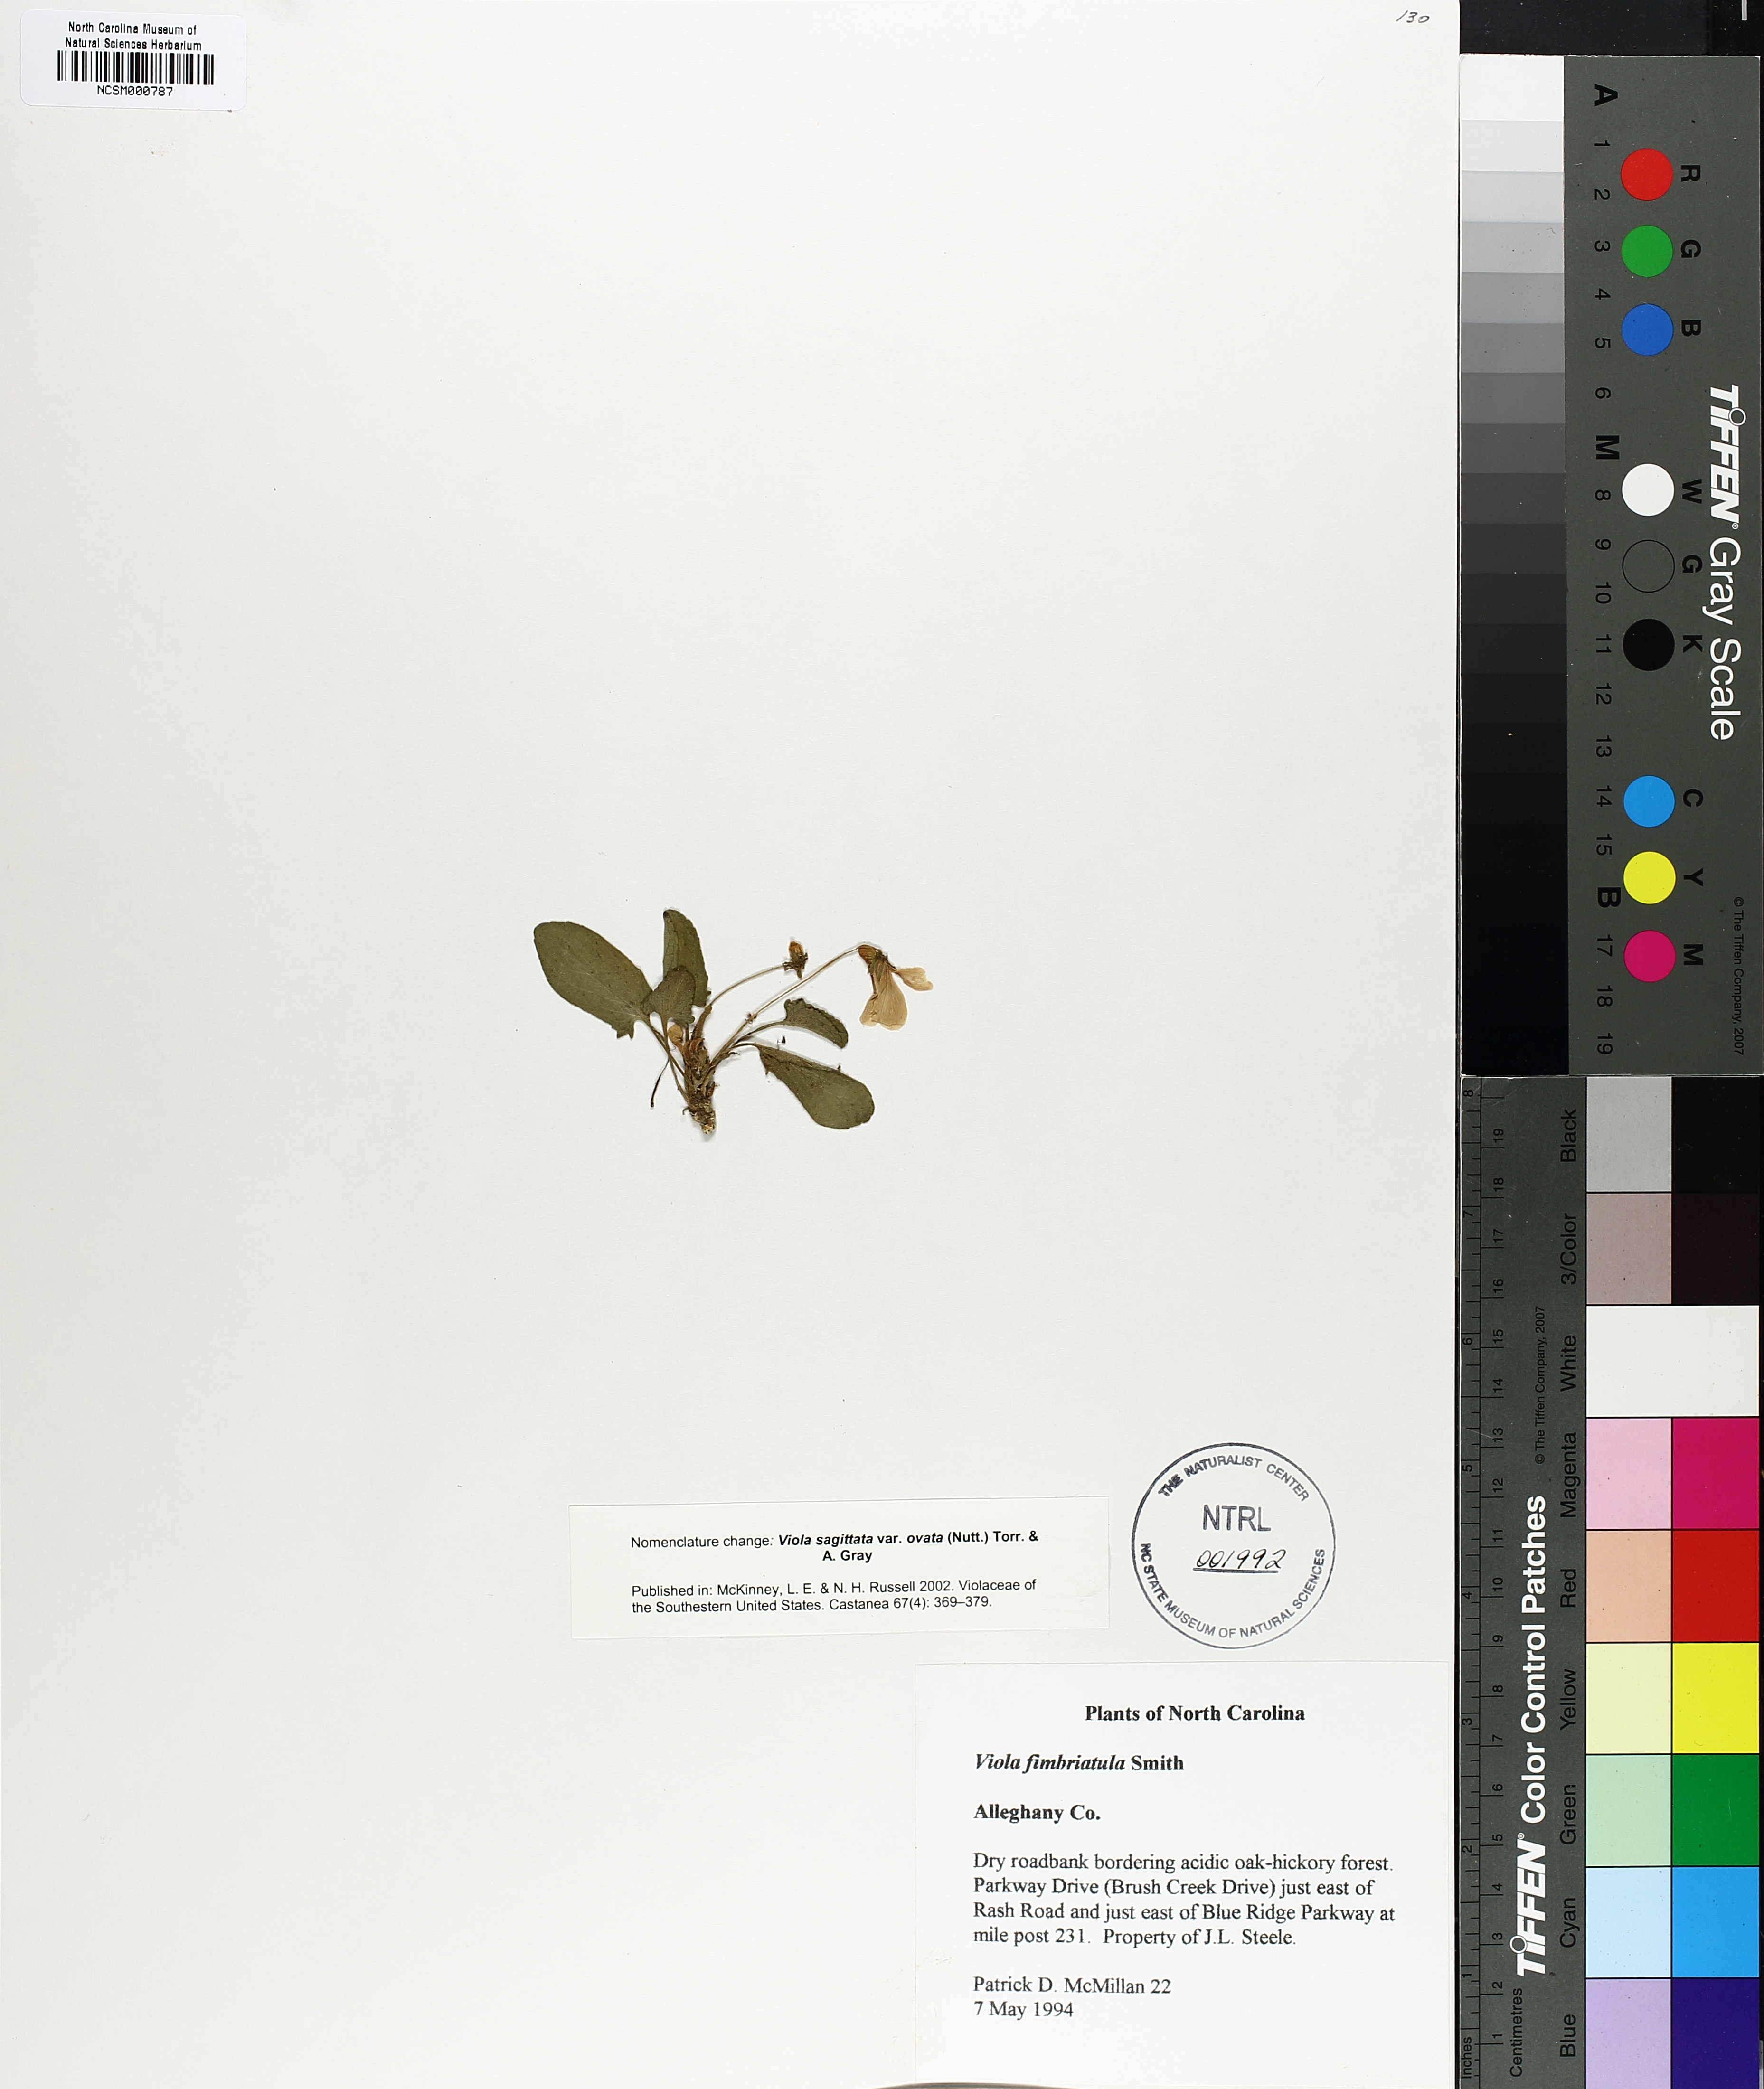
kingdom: Plantae
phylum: Tracheophyta
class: Magnoliopsida
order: Malpighiales
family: Violaceae
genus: Viola
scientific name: Viola fimbriatula
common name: Sand violet
